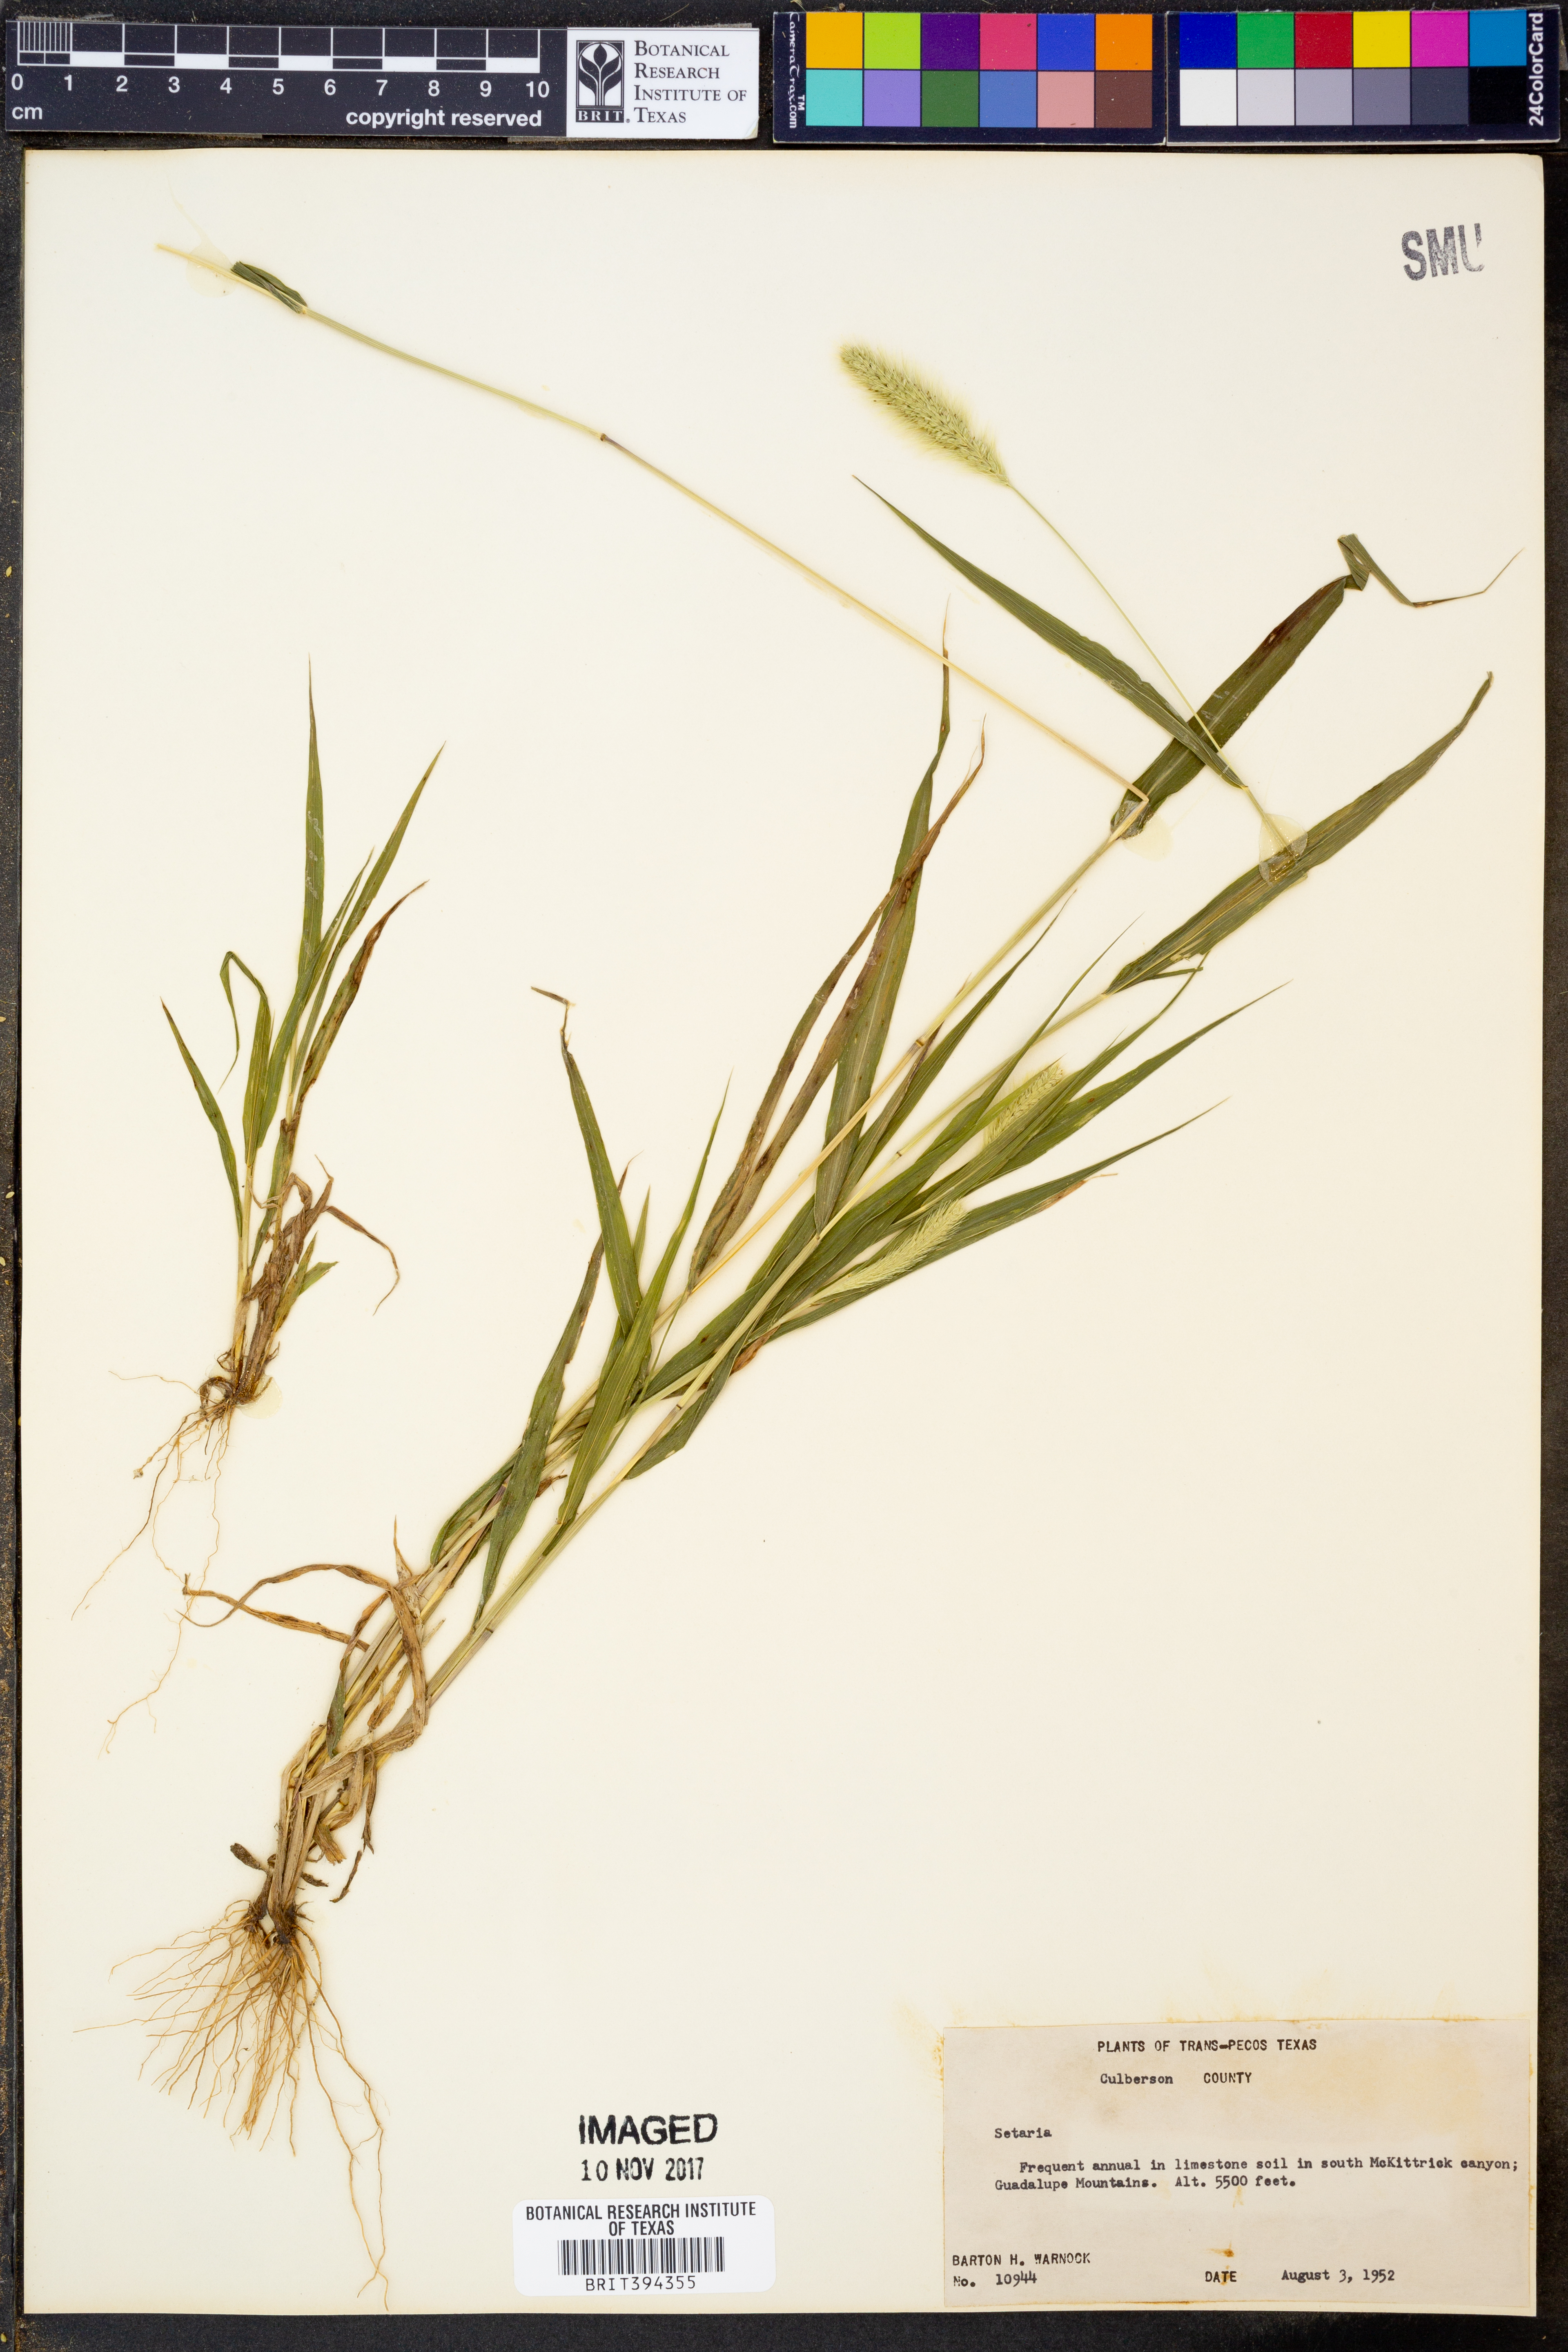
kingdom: Plantae
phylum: Tracheophyta
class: Liliopsida
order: Poales
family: Poaceae
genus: Setaria
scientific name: Setaria
